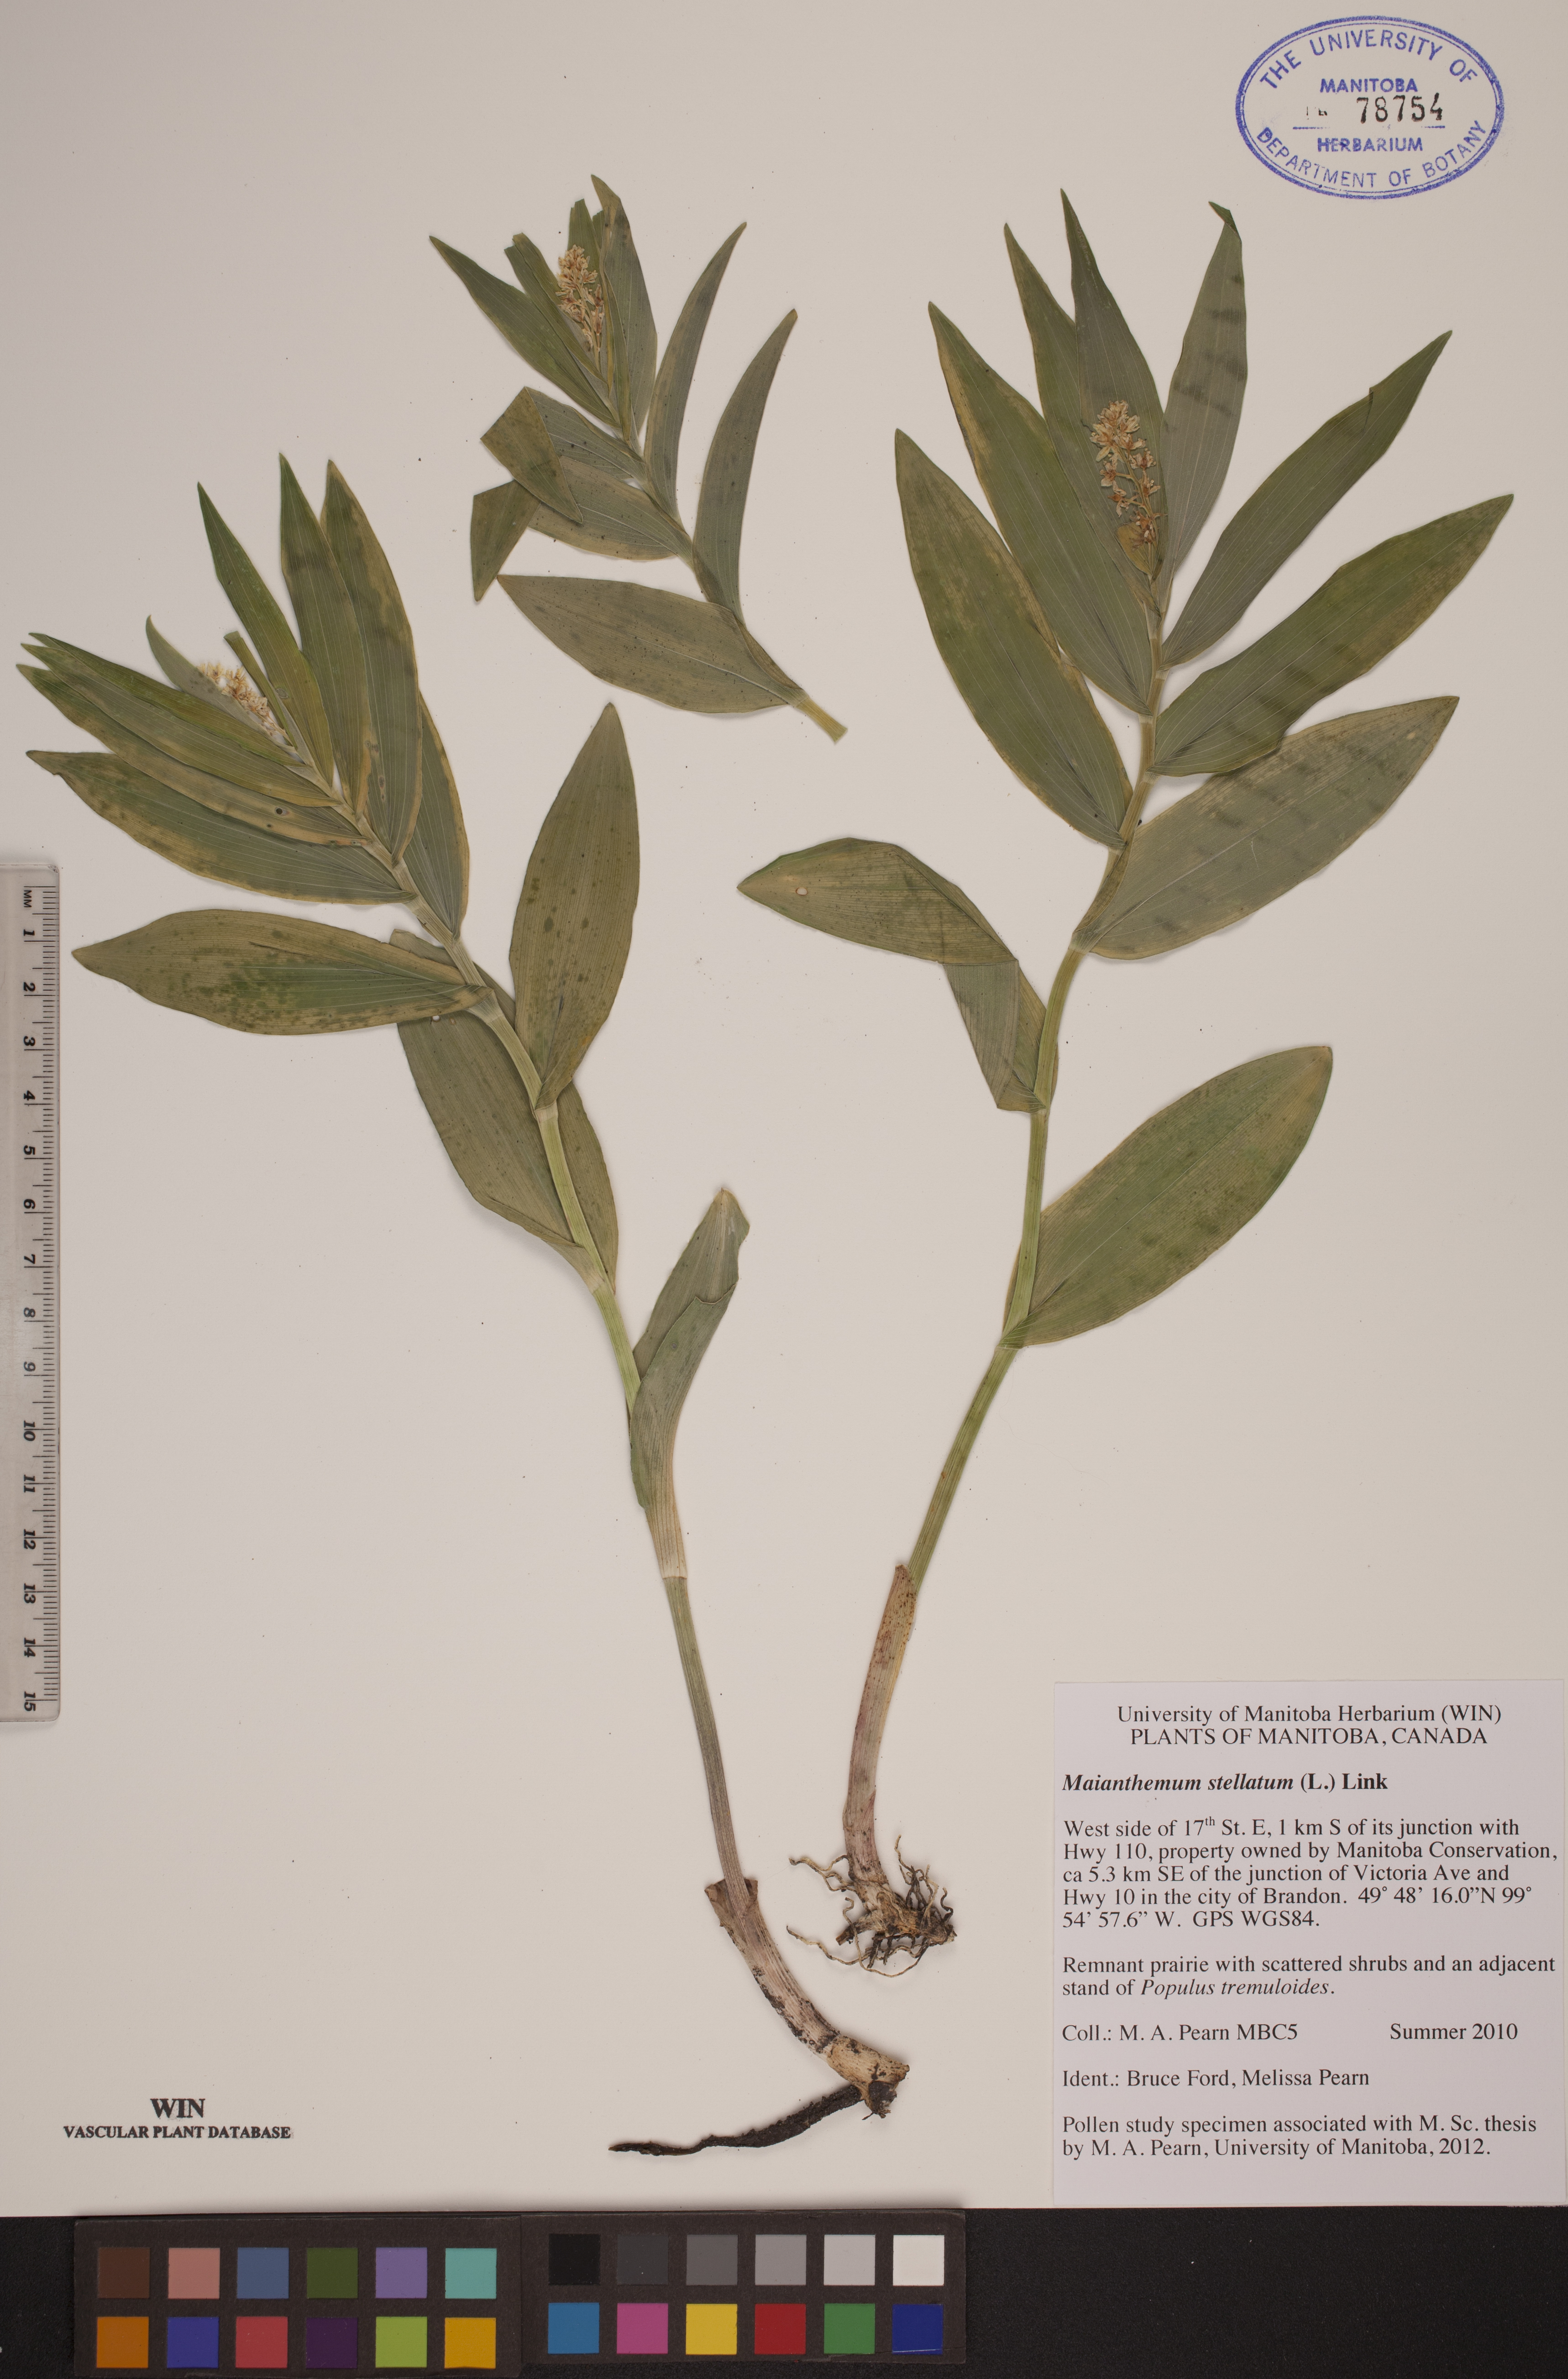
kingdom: Plantae
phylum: Tracheophyta
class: Liliopsida
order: Asparagales
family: Asparagaceae
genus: Maianthemum
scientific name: Maianthemum stellatum
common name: Little false solomon's seal
